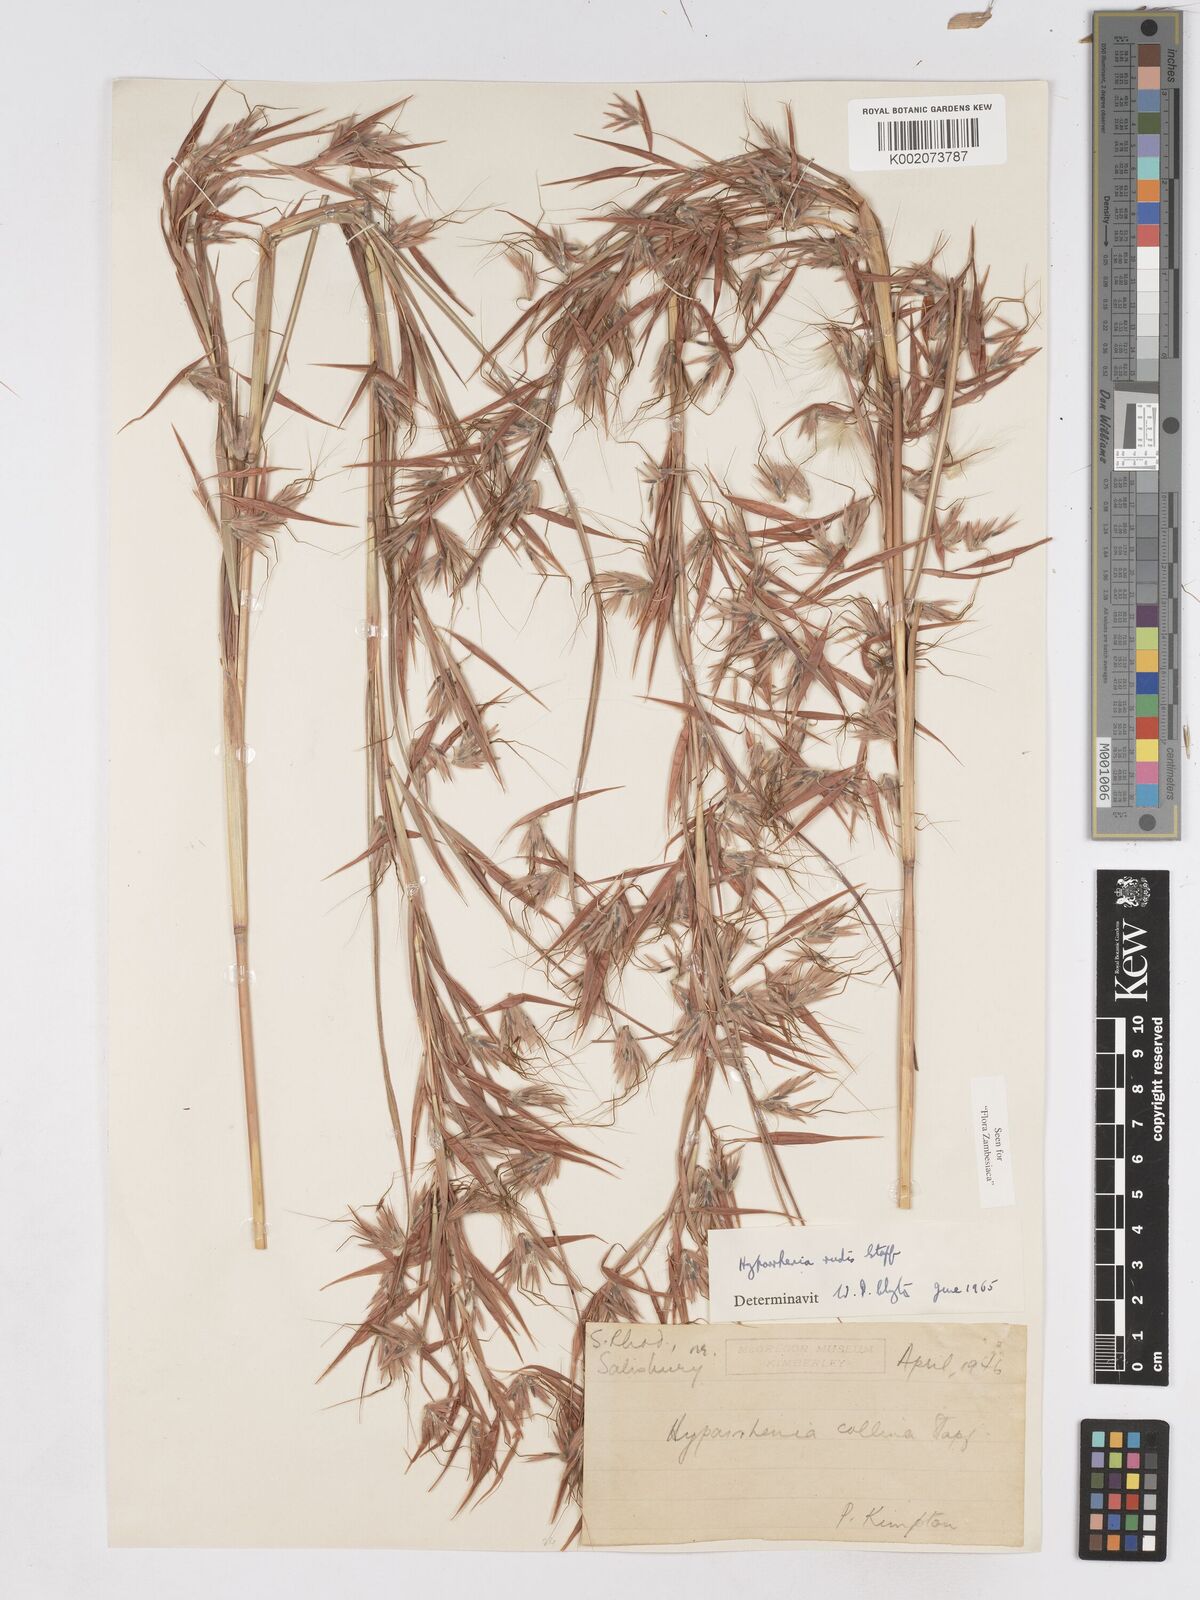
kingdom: Plantae
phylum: Tracheophyta
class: Liliopsida
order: Poales
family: Poaceae
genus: Hyparrhenia
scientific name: Hyparrhenia rudis
